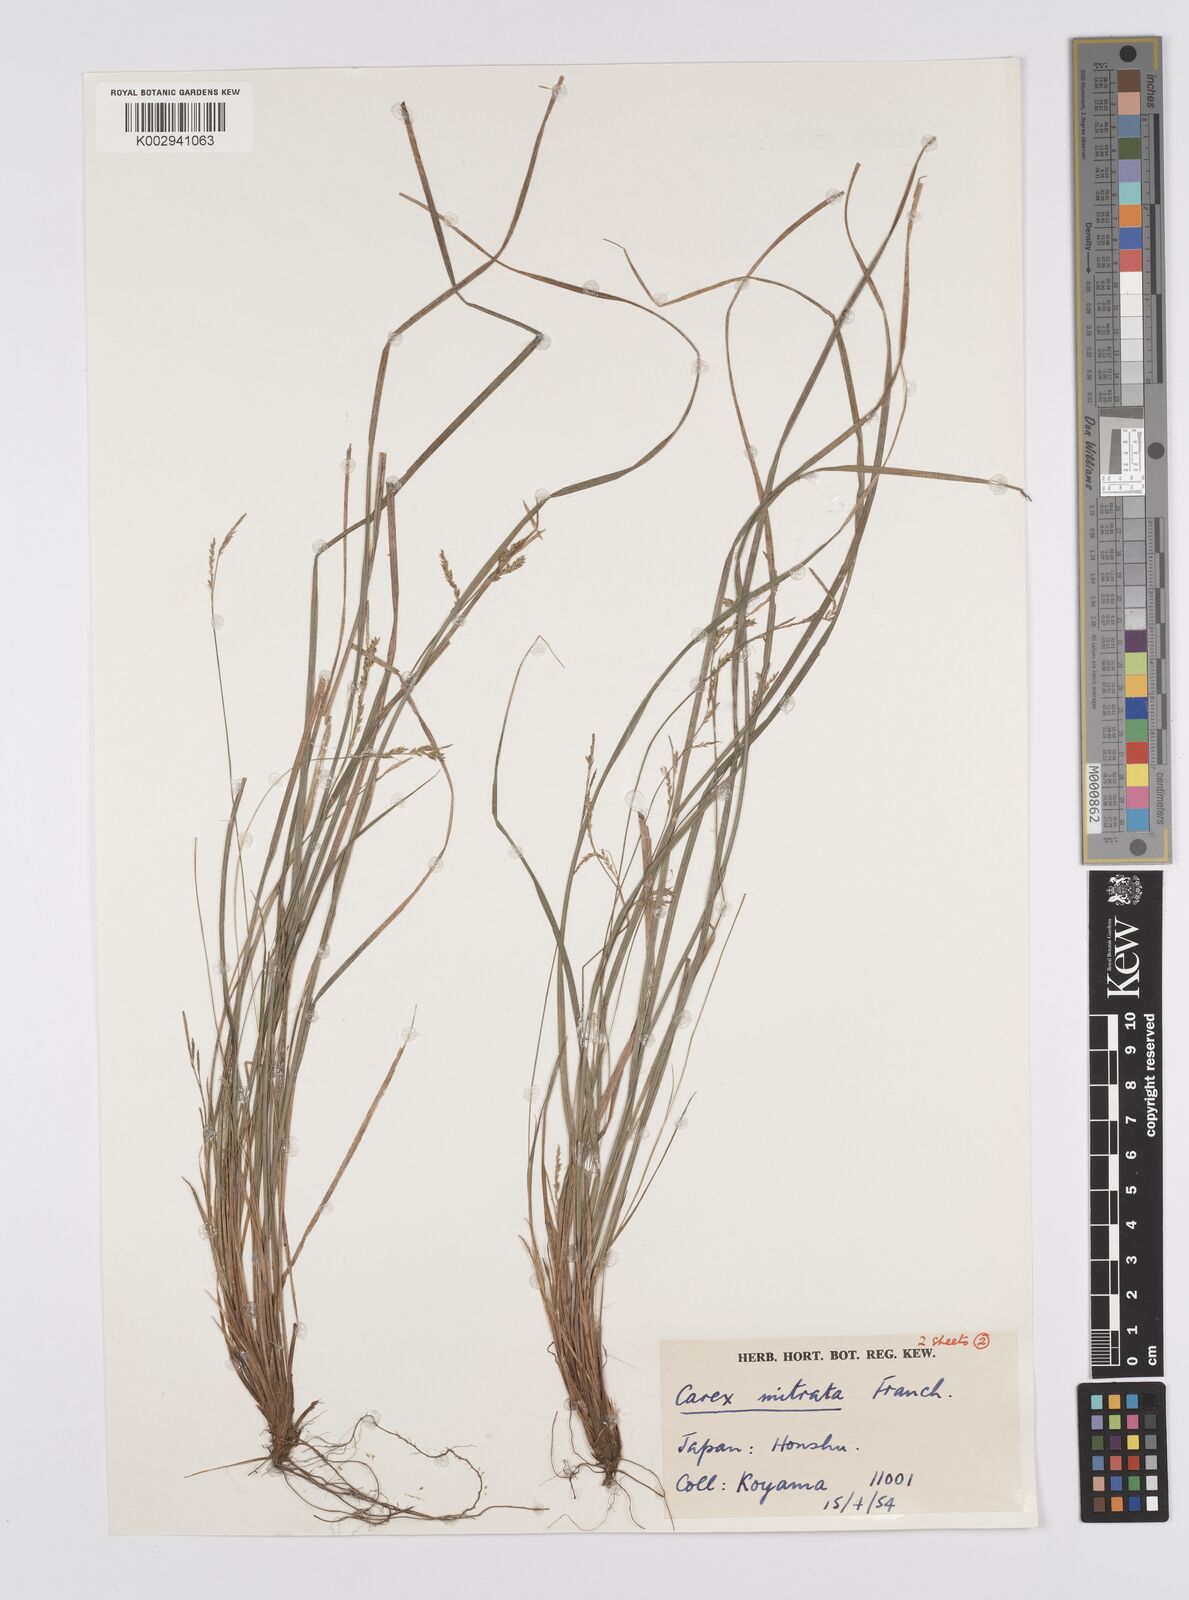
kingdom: Plantae
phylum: Tracheophyta
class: Liliopsida
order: Poales
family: Cyperaceae
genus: Carex
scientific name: Carex mitrata
